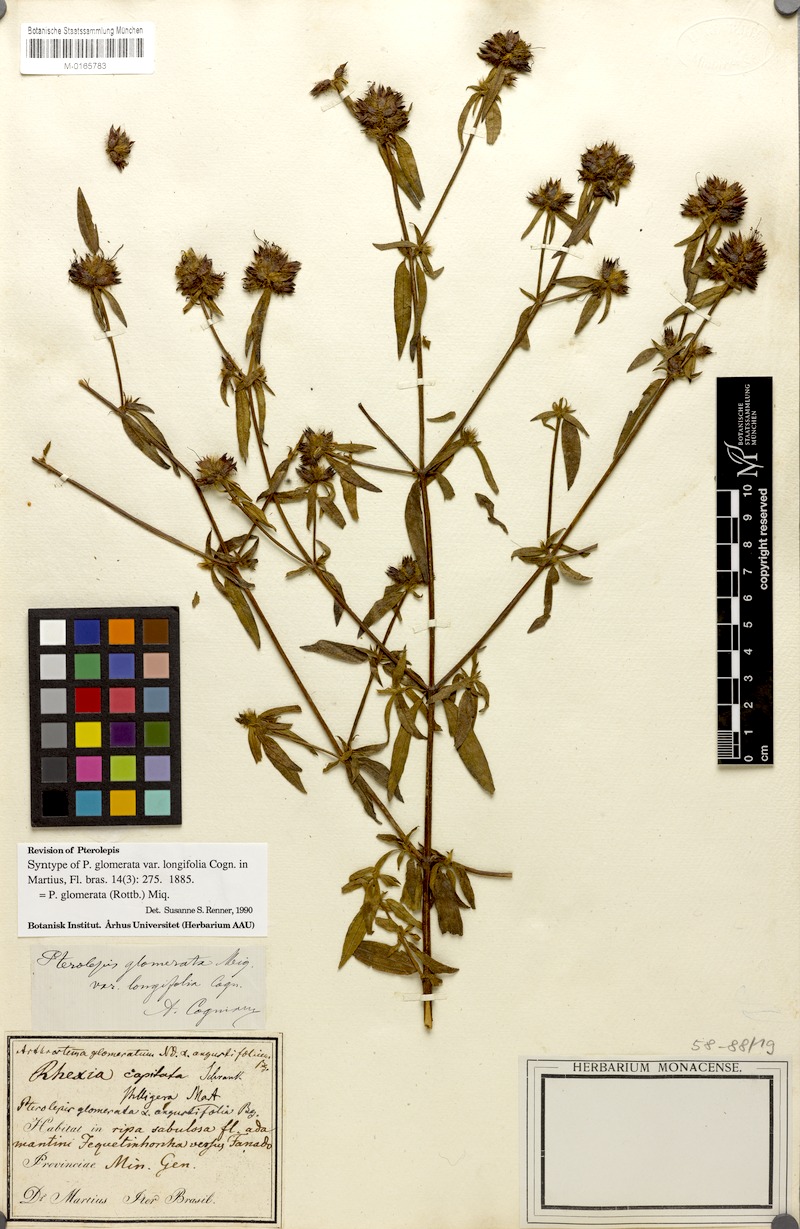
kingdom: Plantae
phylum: Tracheophyta
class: Magnoliopsida
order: Myrtales
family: Melastomataceae
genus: Pterolepis
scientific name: Pterolepis glomerata
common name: False meadowbeauty
